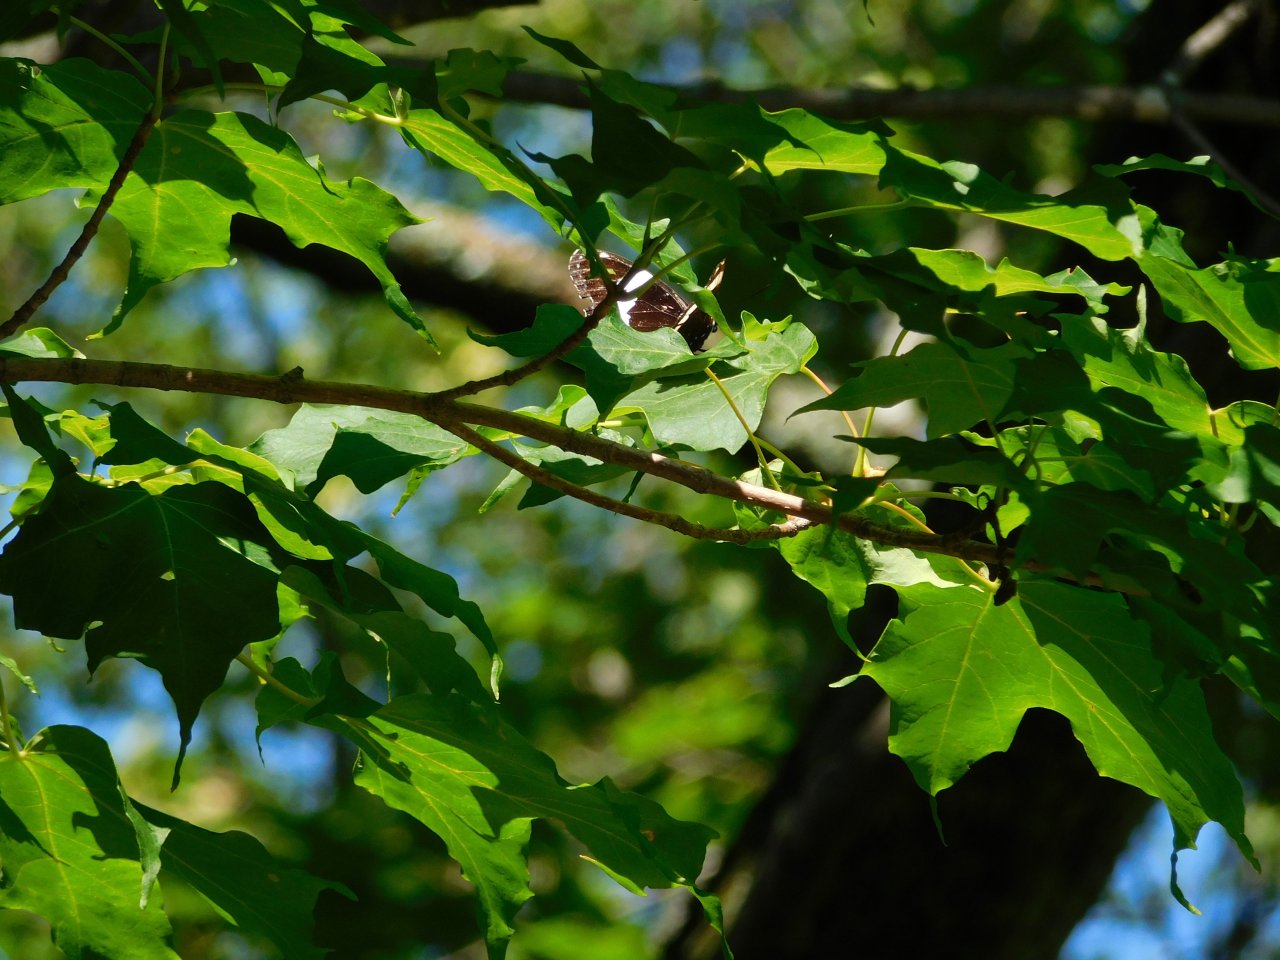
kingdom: Animalia
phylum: Arthropoda
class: Insecta
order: Lepidoptera
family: Nymphalidae
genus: Limenitis
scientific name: Limenitis arthemis
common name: Red-spotted Admiral
